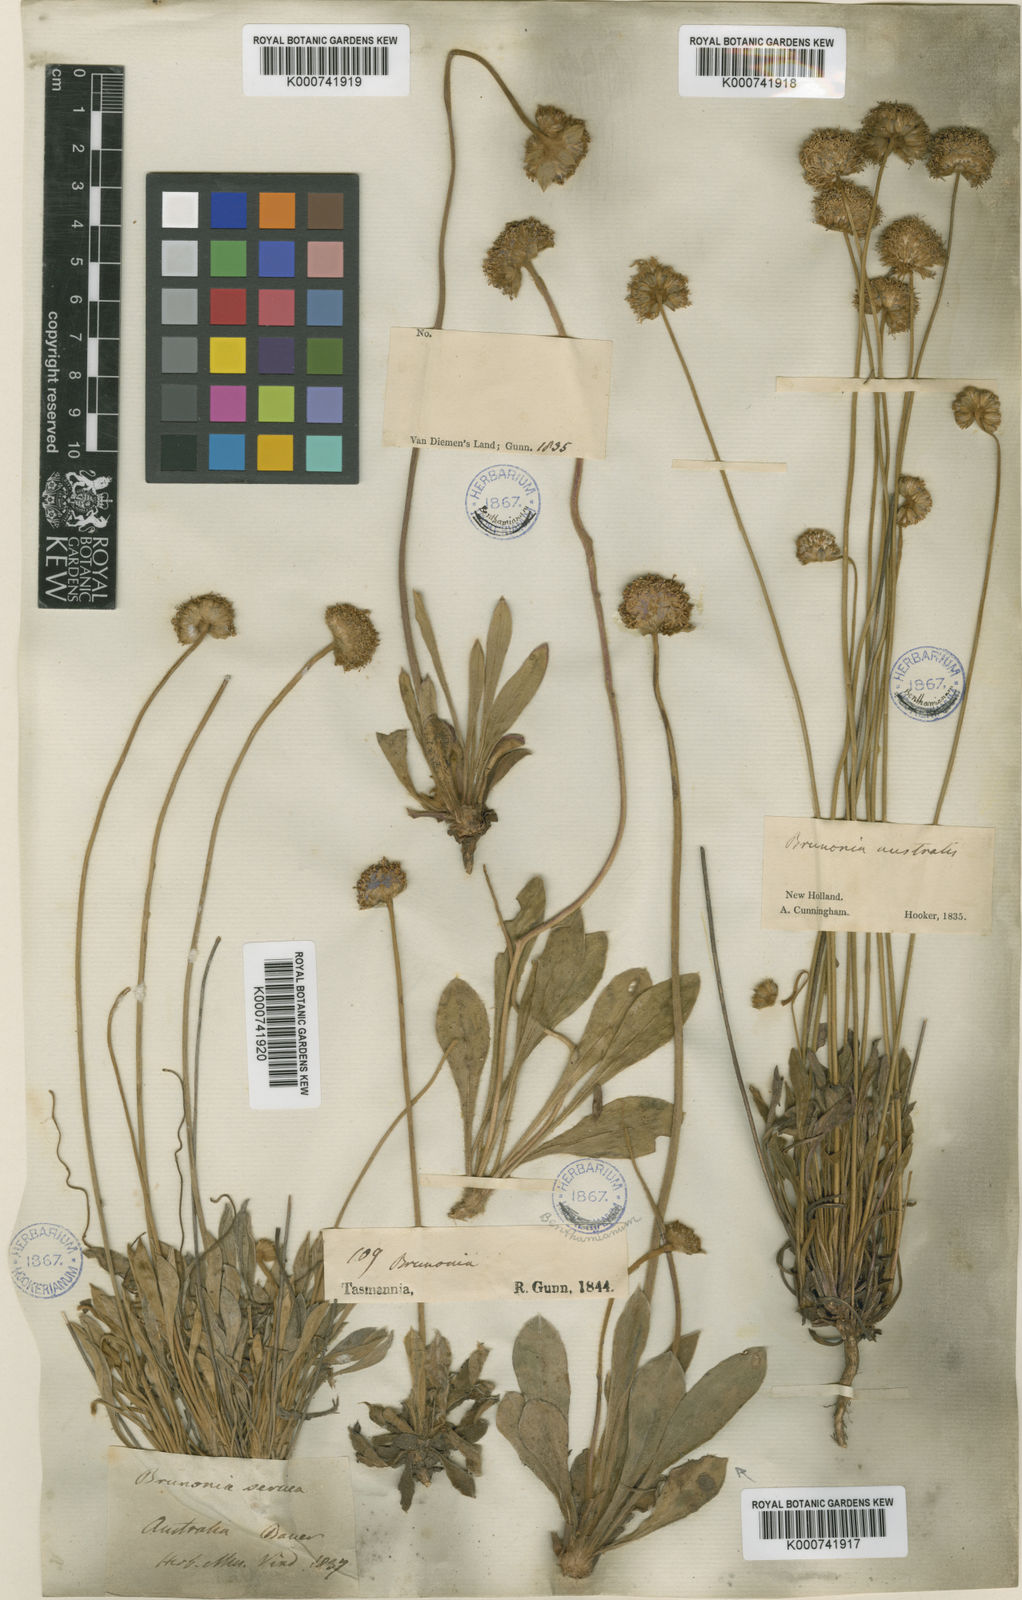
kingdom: Plantae
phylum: Tracheophyta
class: Magnoliopsida
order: Asterales
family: Goodeniaceae
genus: Brunonia
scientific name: Brunonia
